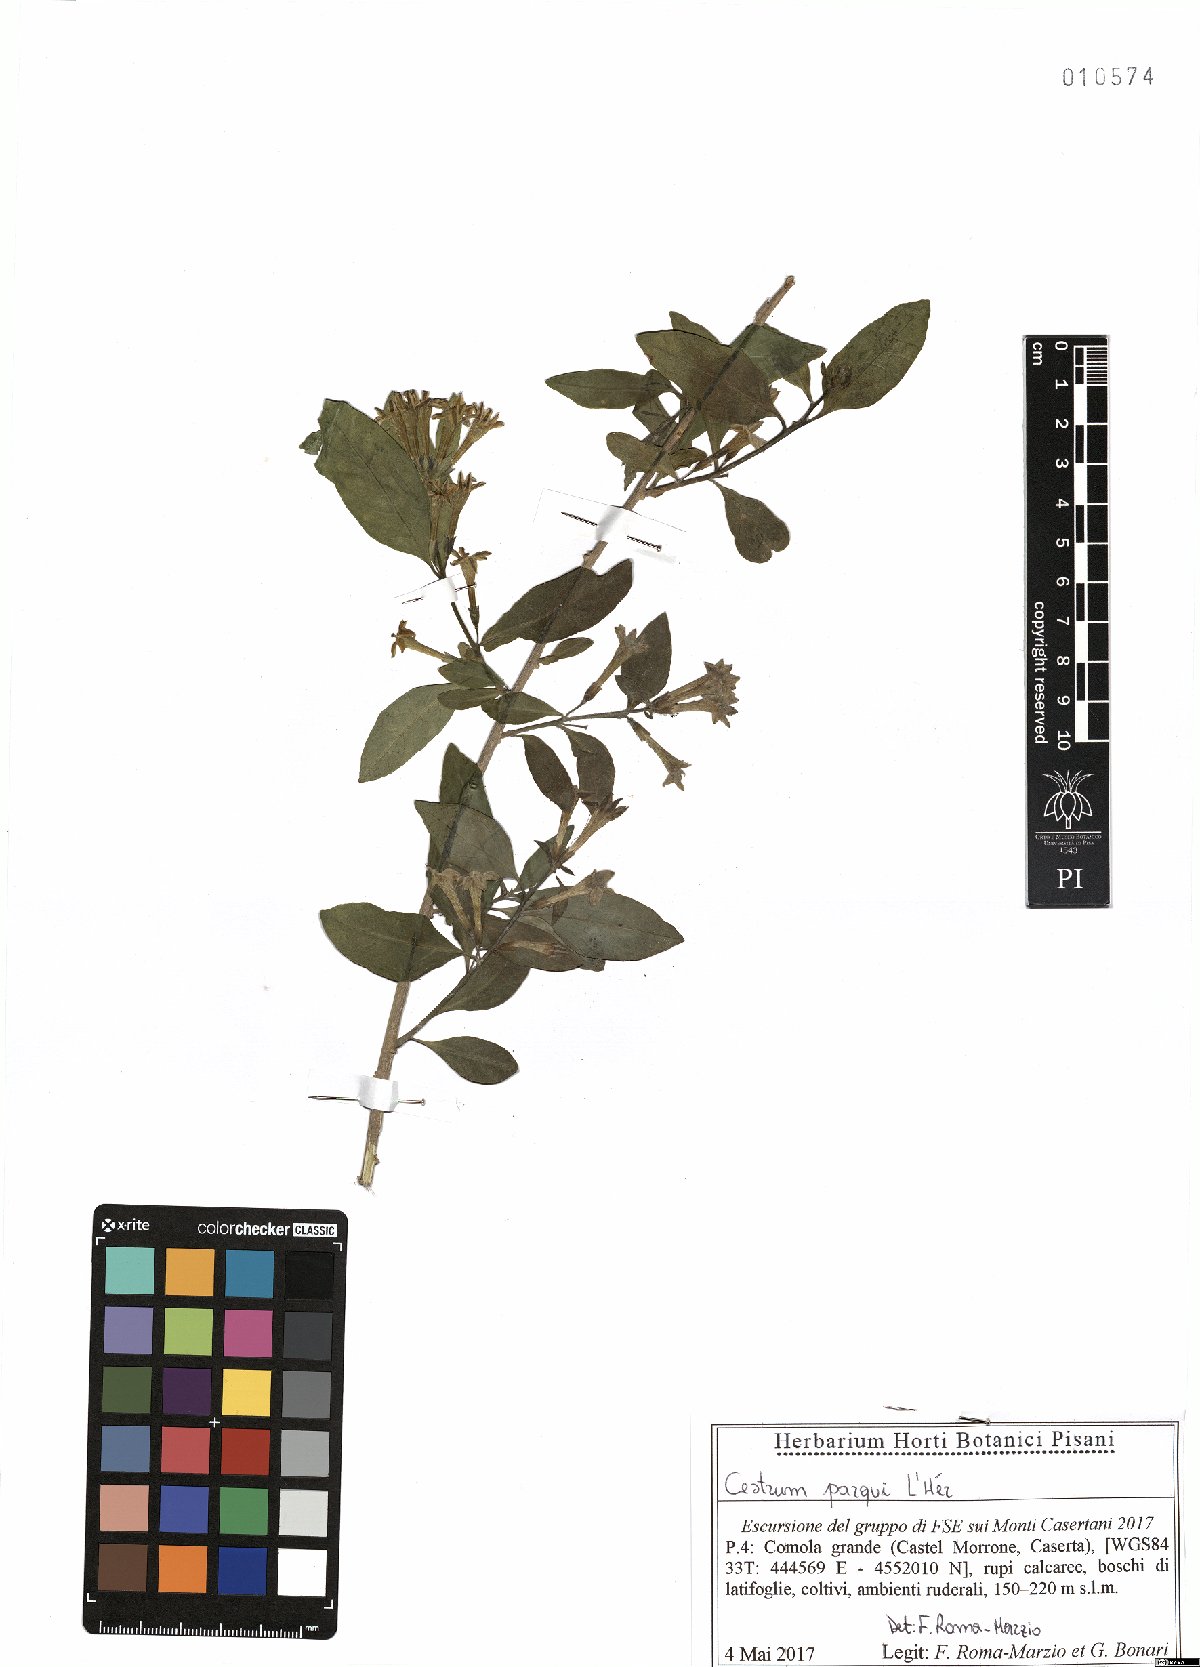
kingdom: Plantae
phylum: Tracheophyta
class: Magnoliopsida
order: Solanales
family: Solanaceae
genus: Cestrum
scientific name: Cestrum thyrsoideum
